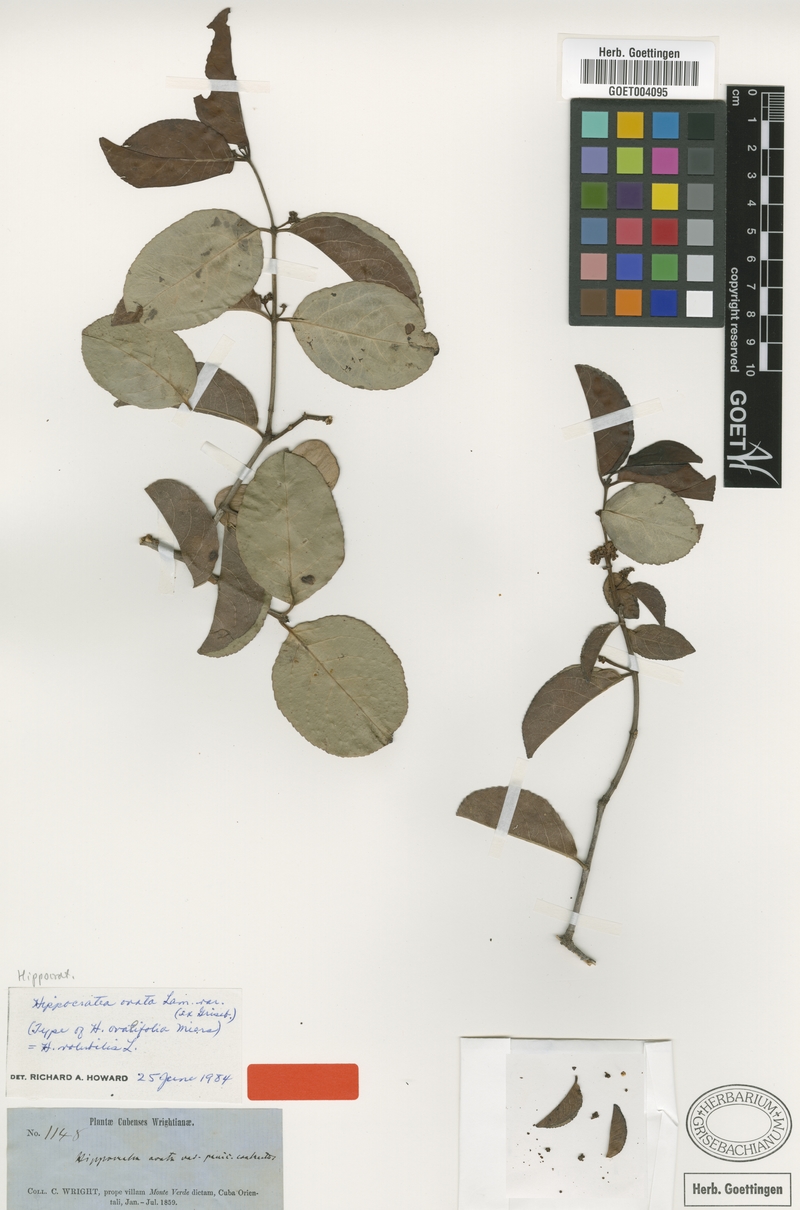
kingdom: Plantae
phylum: Tracheophyta
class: Magnoliopsida
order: Celastrales
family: Celastraceae
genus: Hippocratea
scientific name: Hippocratea volubilis
